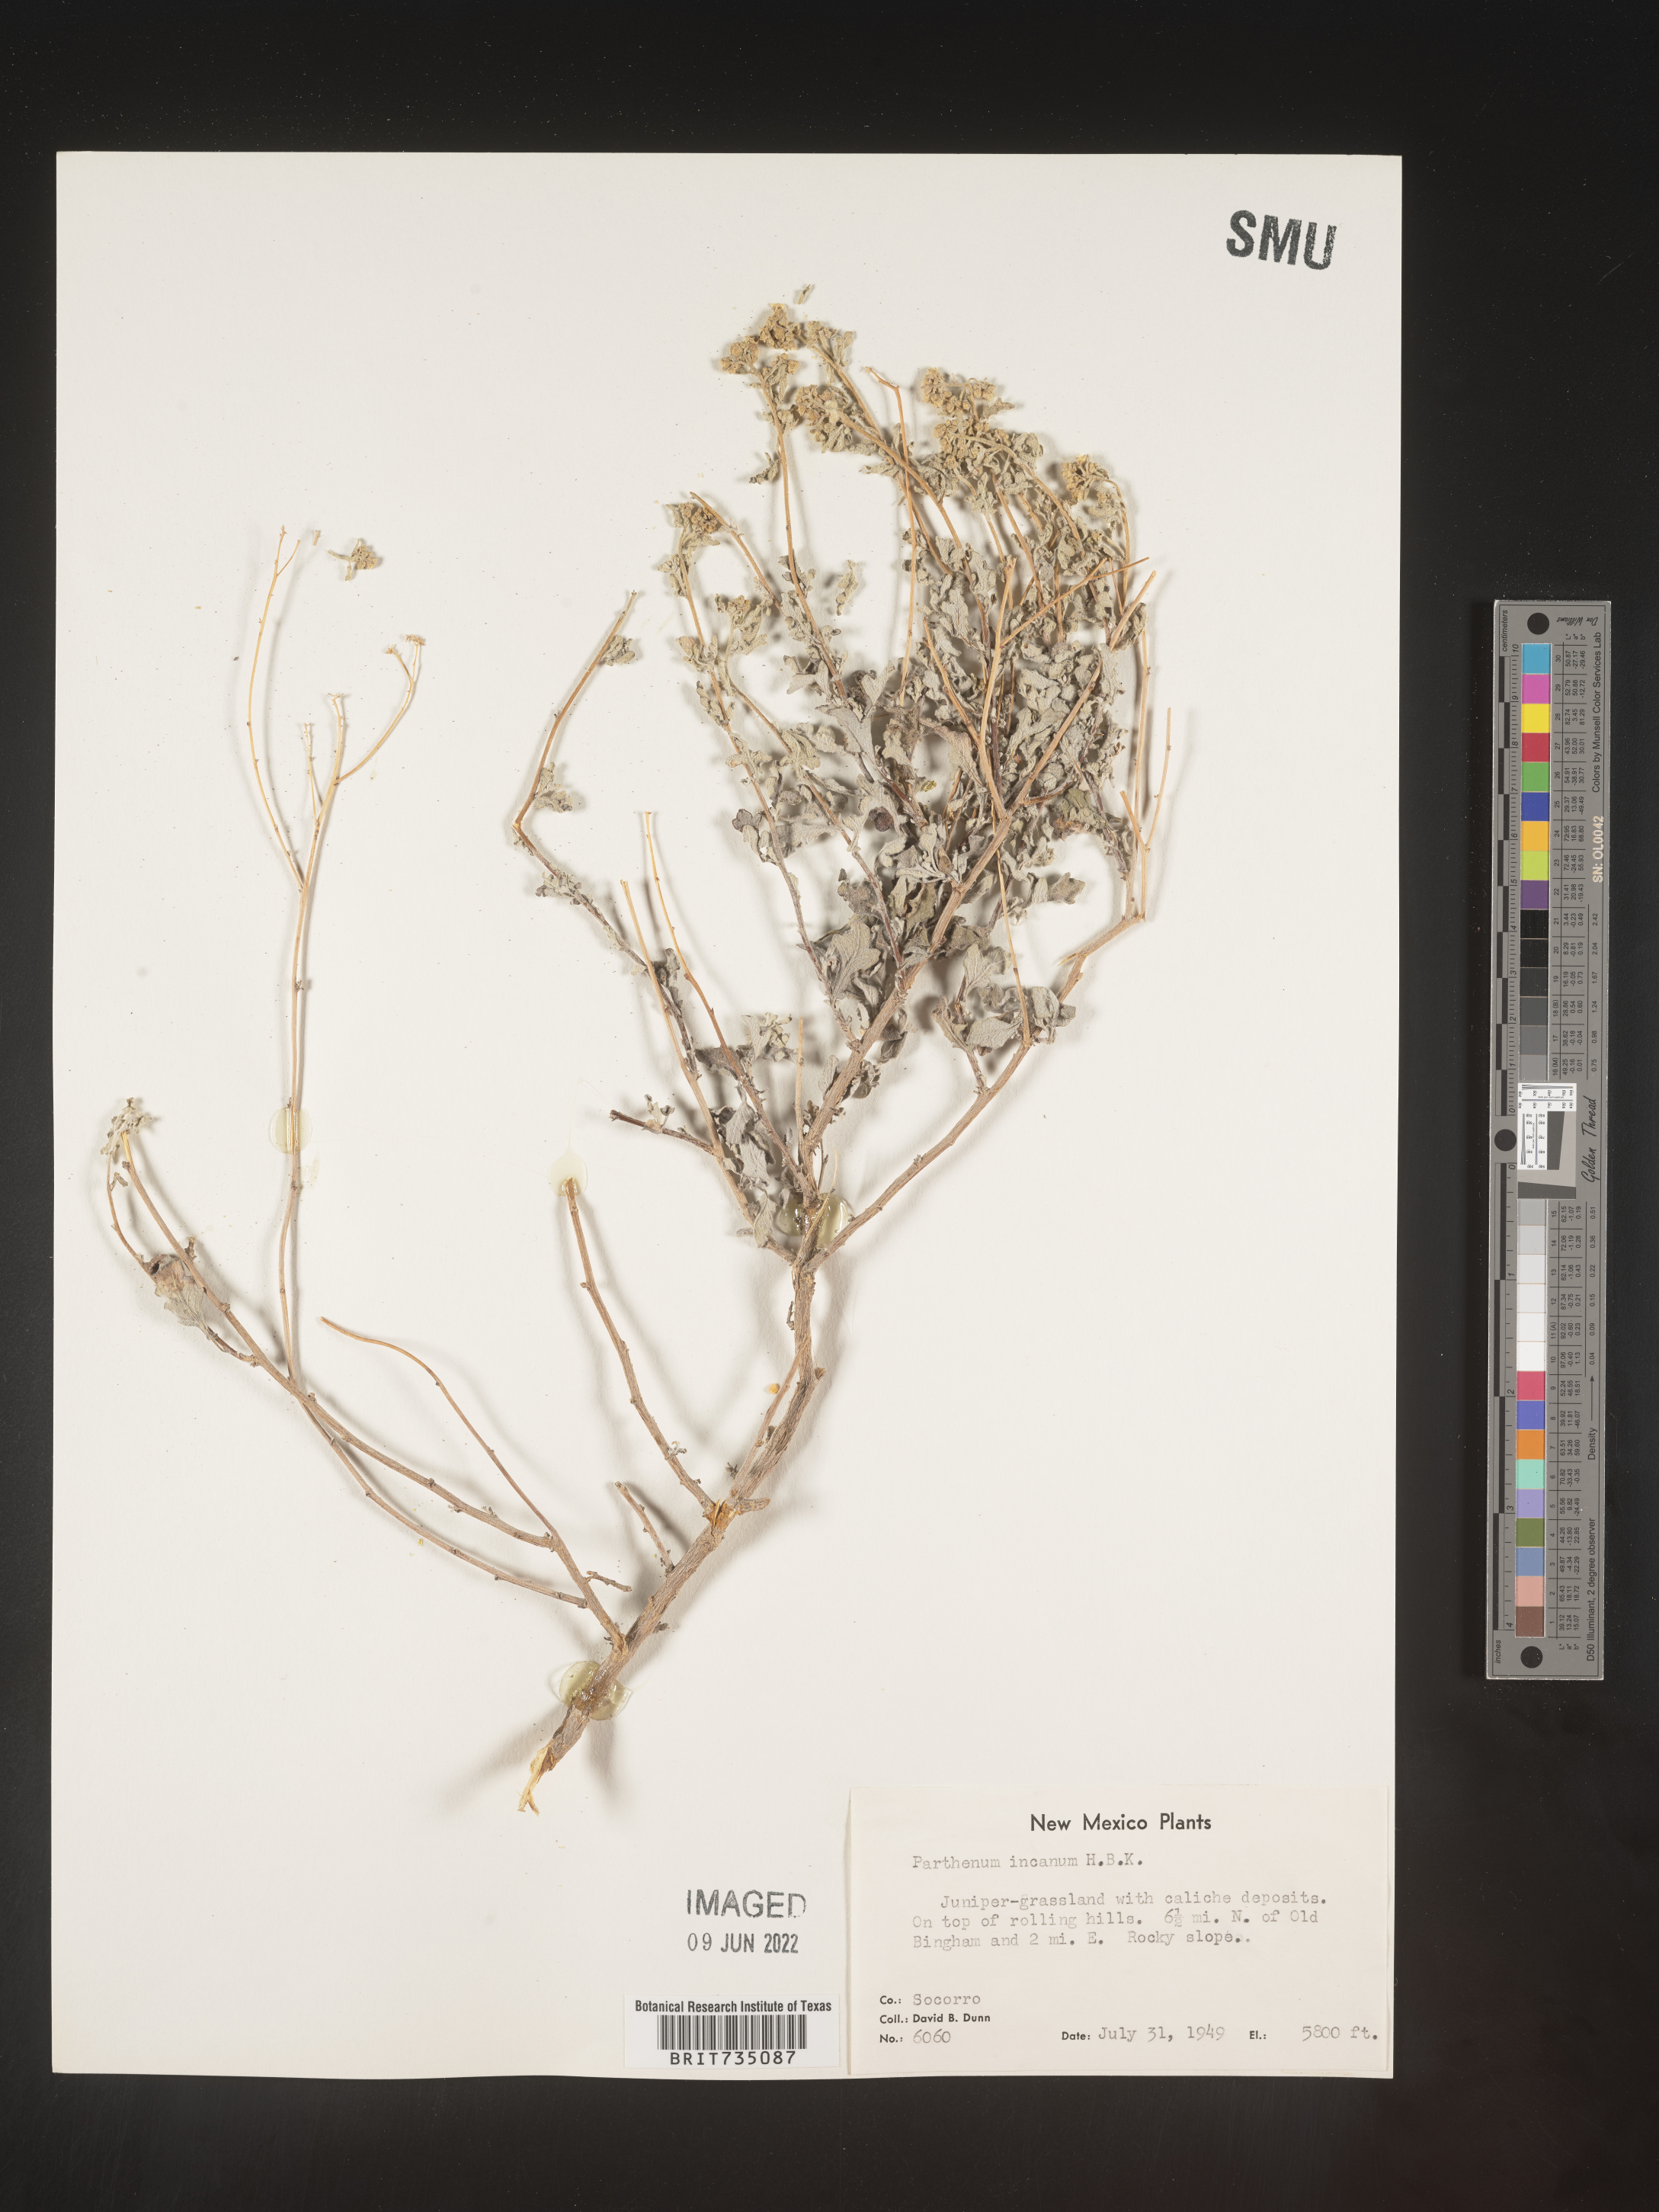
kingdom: Plantae
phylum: Tracheophyta
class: Magnoliopsida
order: Asterales
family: Asteraceae
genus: Parthenium
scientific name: Parthenium incanum
